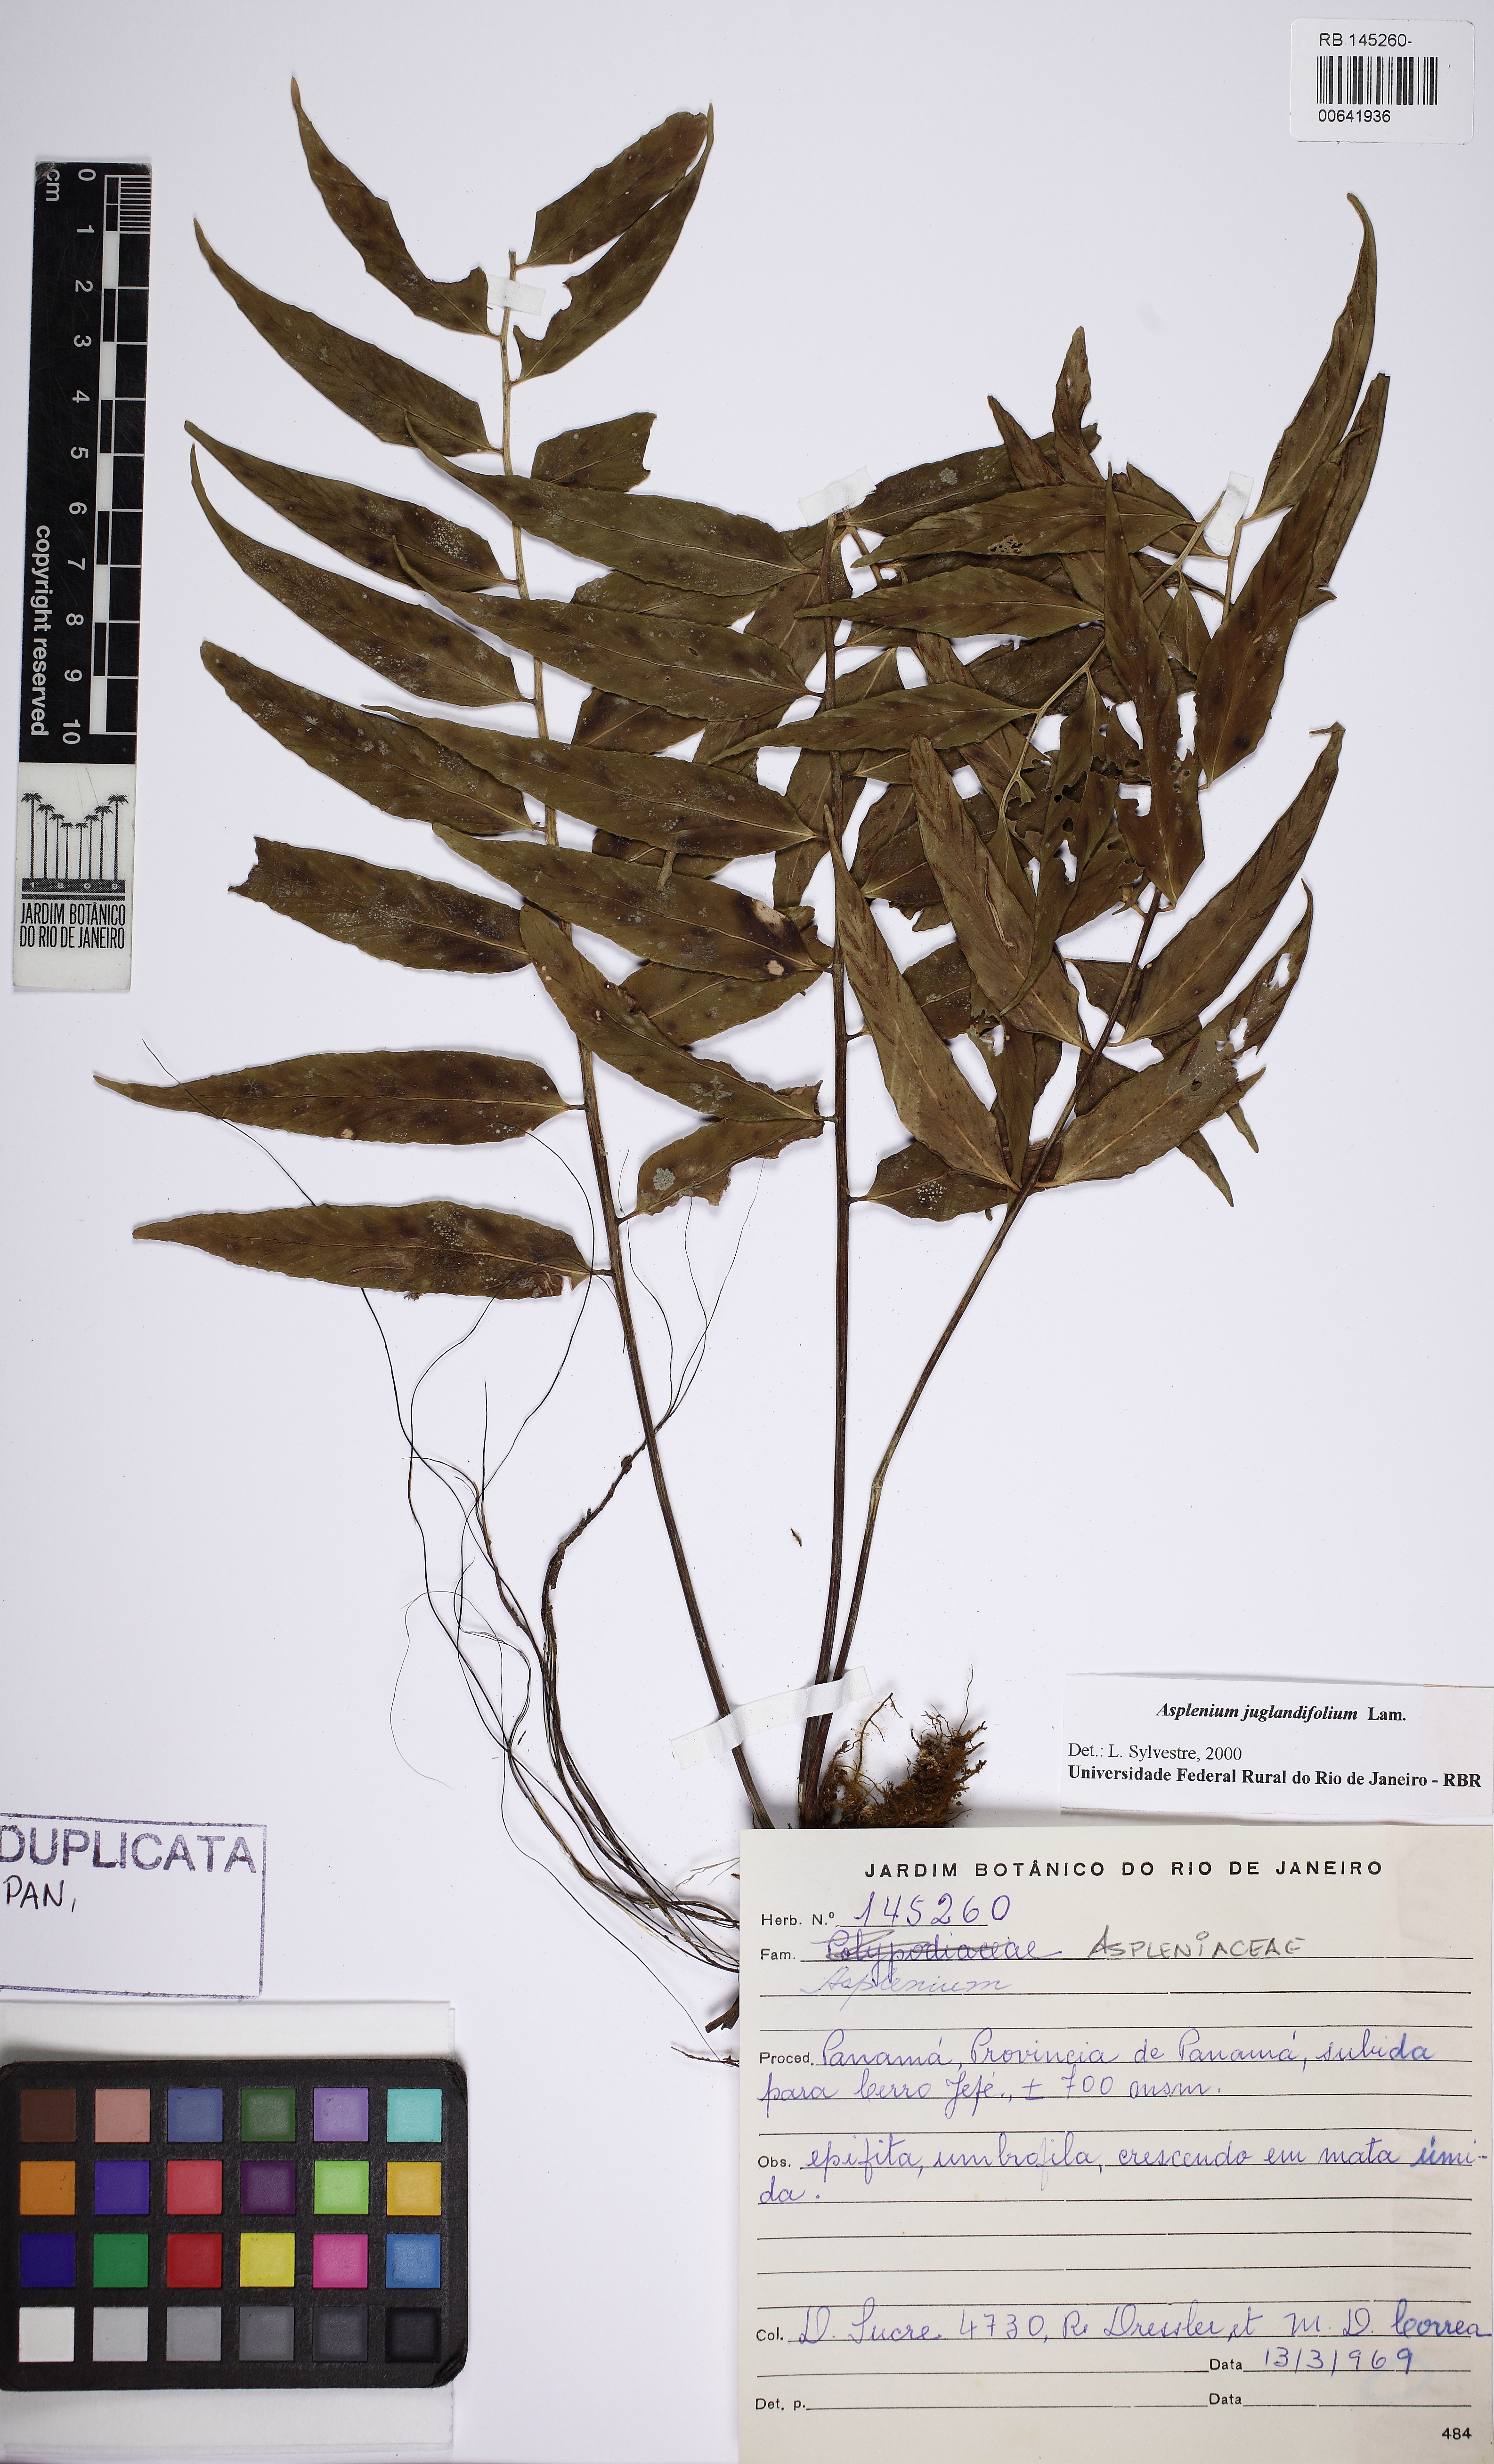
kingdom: Plantae
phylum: Tracheophyta
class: Polypodiopsida
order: Polypodiales
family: Aspleniaceae
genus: Asplenium
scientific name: Asplenium juglandifolium
